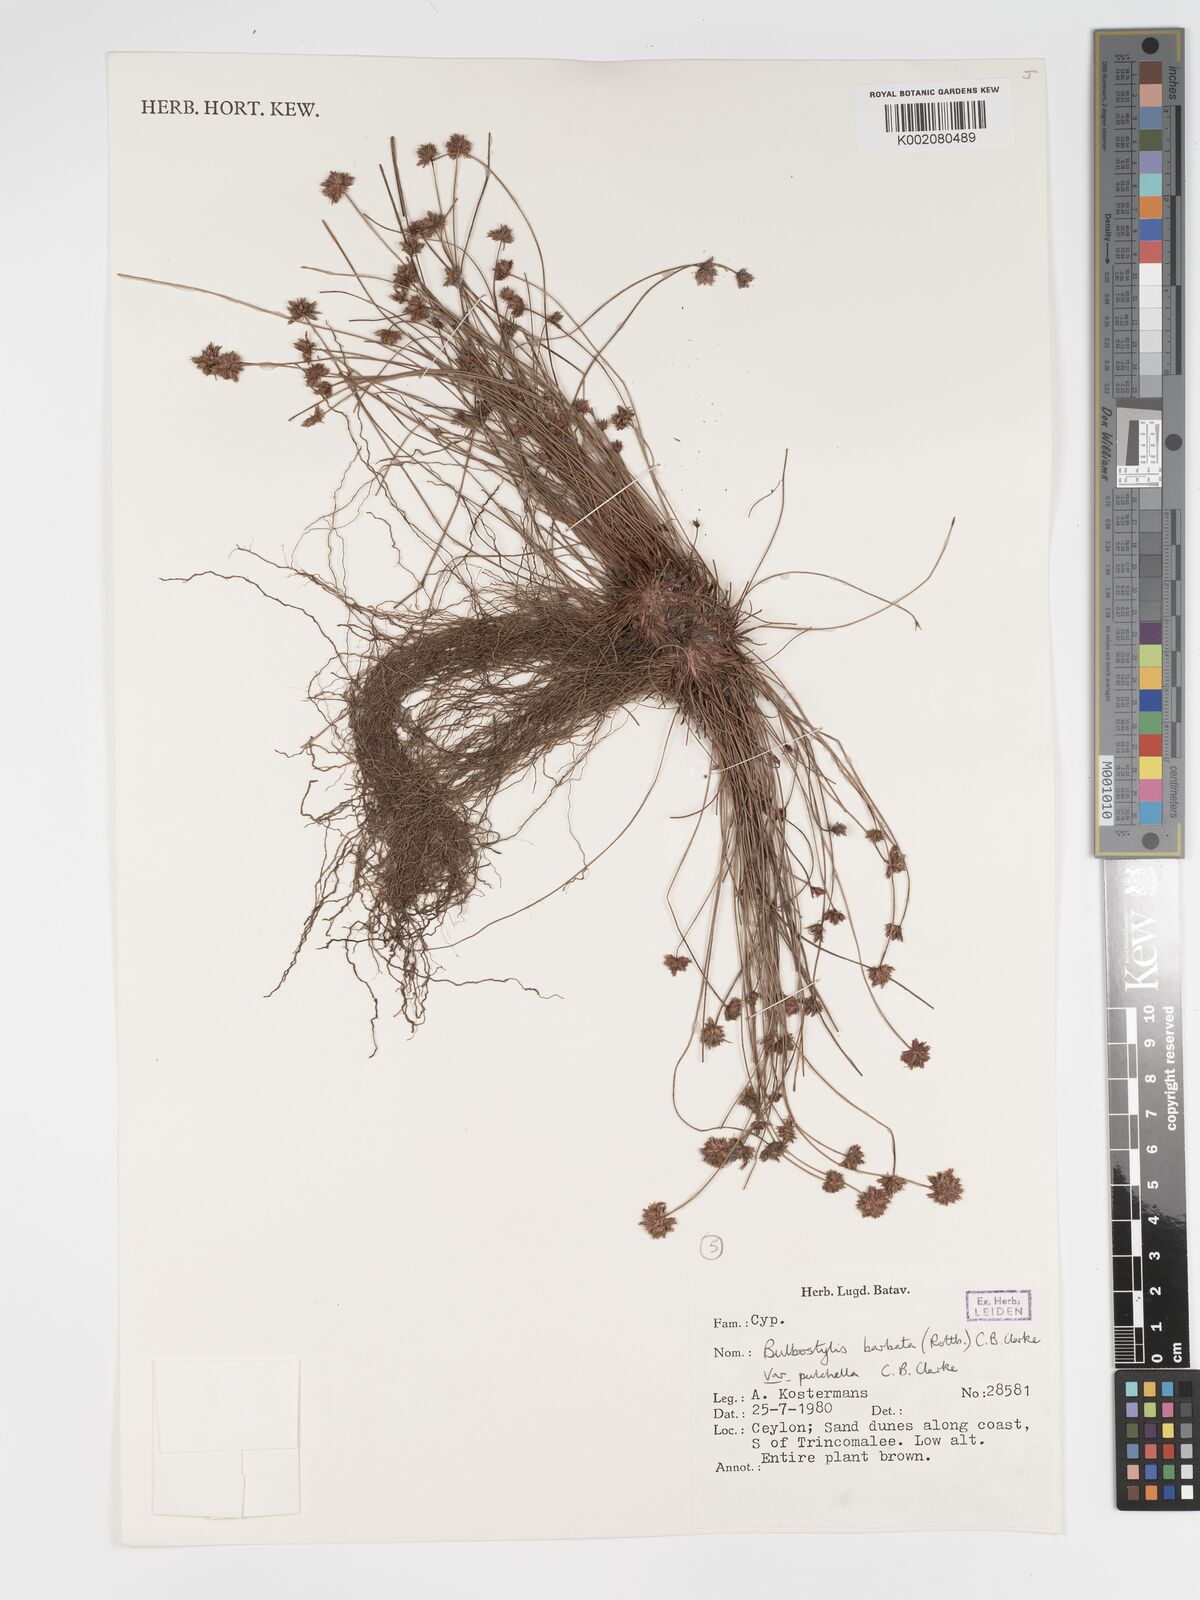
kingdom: Plantae
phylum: Tracheophyta
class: Liliopsida
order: Poales
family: Cyperaceae
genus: Bulbostylis
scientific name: Bulbostylis barbata
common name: Watergrass
